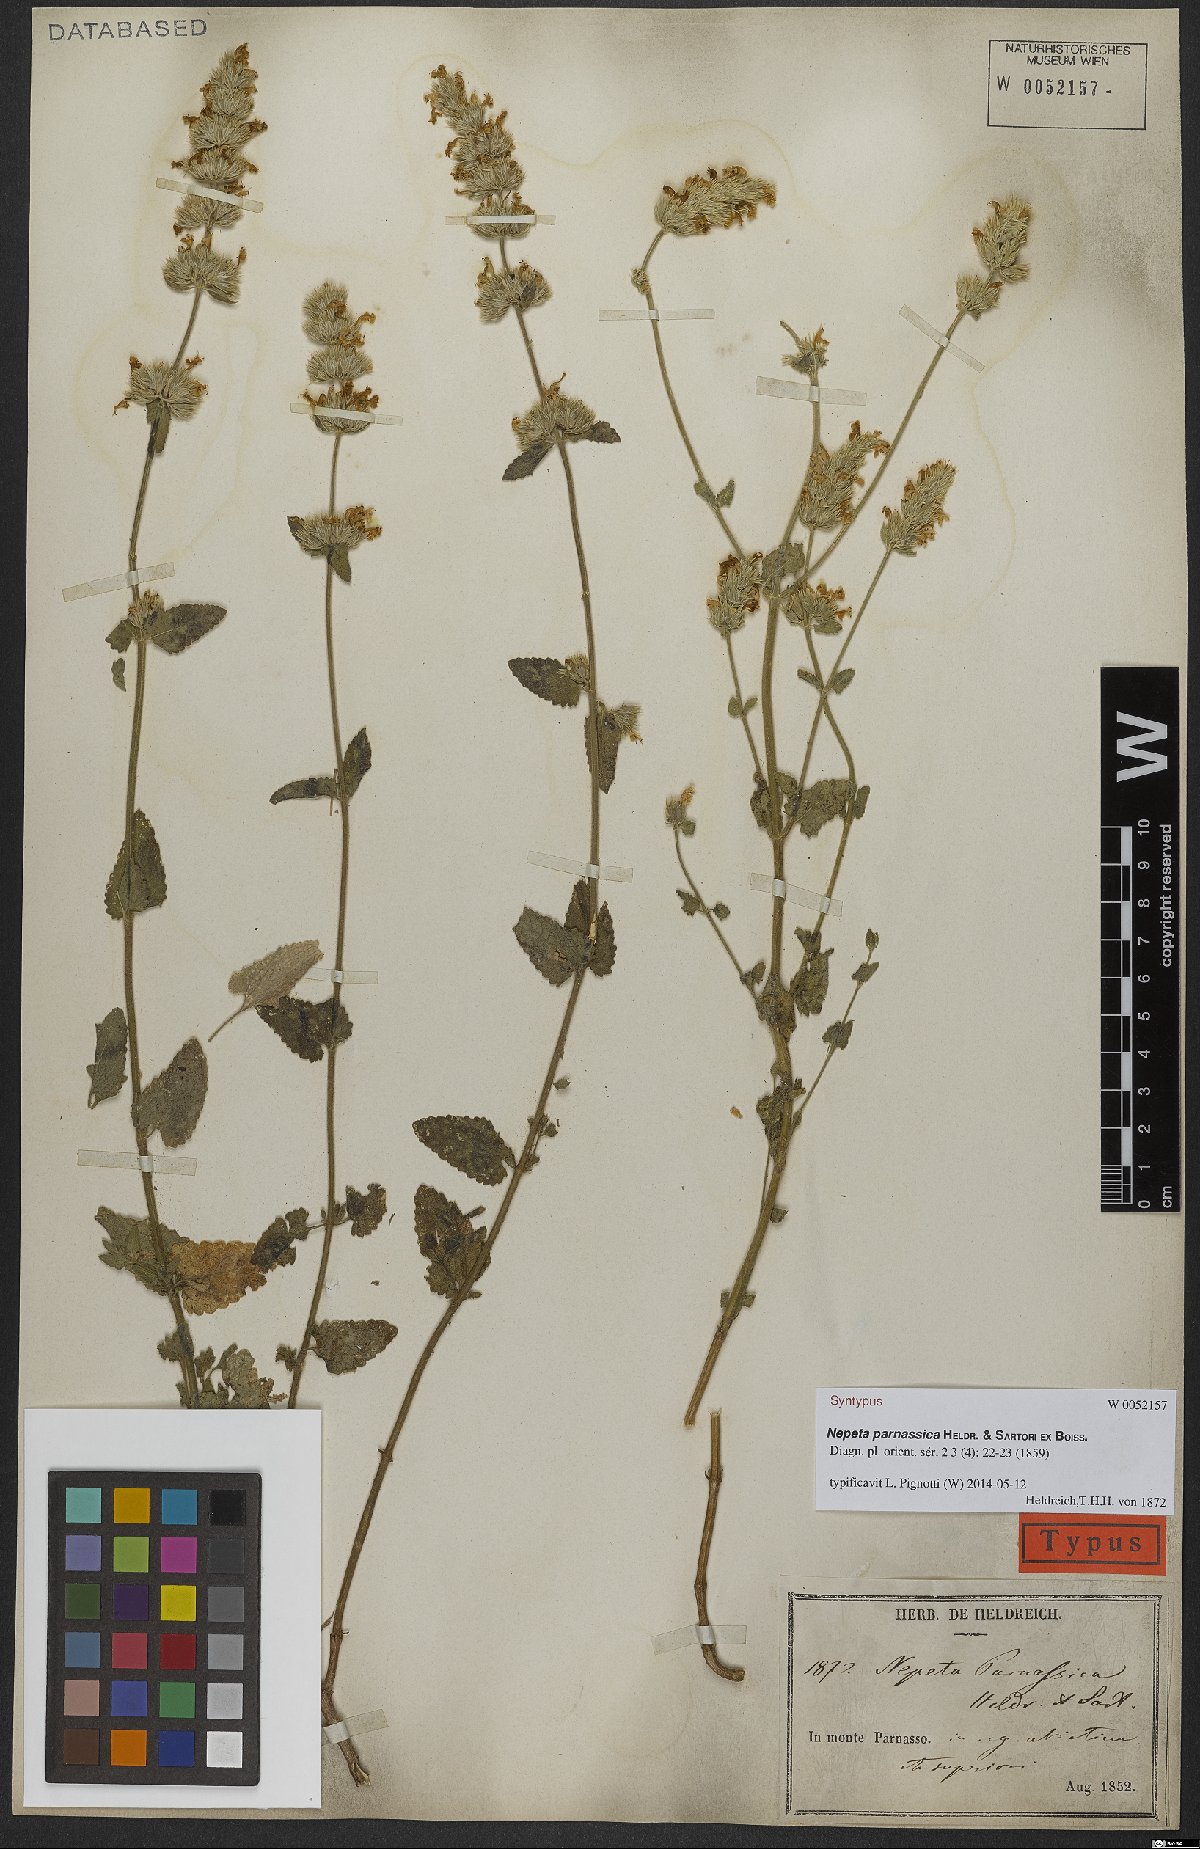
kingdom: Plantae
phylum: Tracheophyta
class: Magnoliopsida
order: Lamiales
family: Lamiaceae
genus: Nepeta
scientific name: Nepeta parnassica
